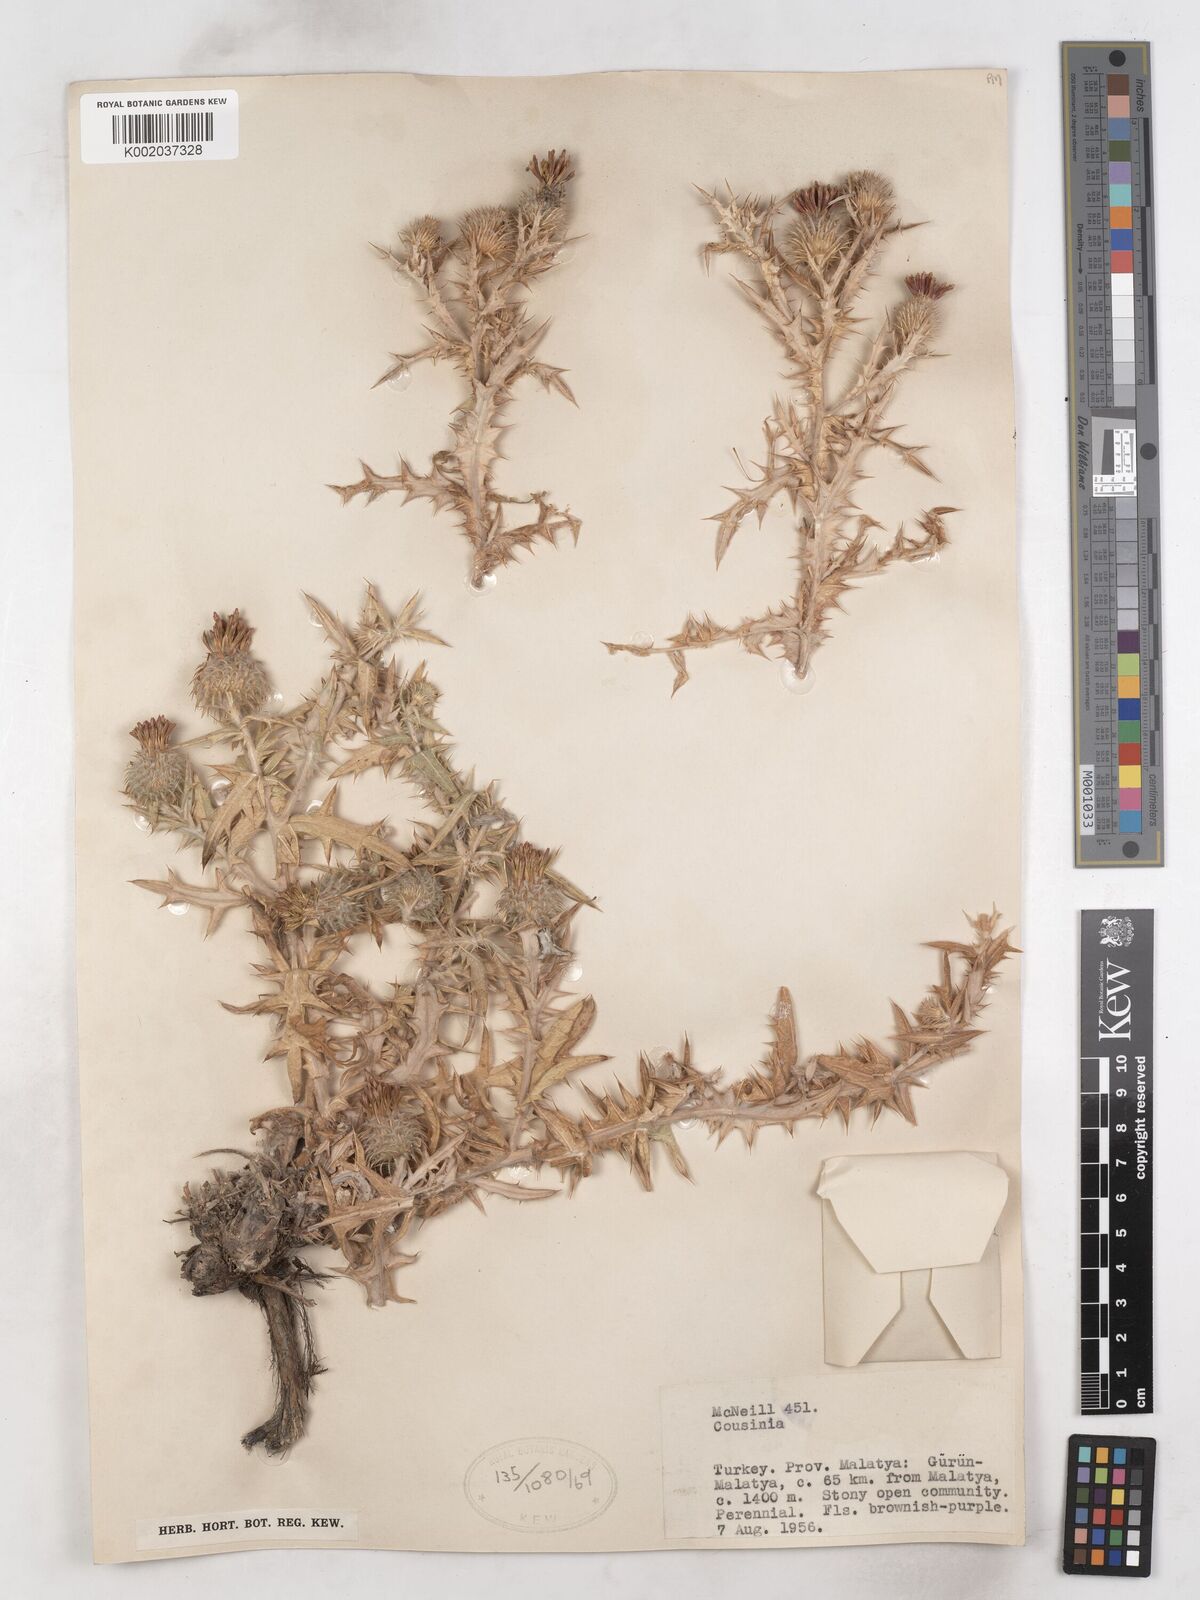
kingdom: Plantae
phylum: Tracheophyta
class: Magnoliopsida
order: Asterales
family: Asteraceae
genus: Cousinia
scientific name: Cousinia stapfiana
